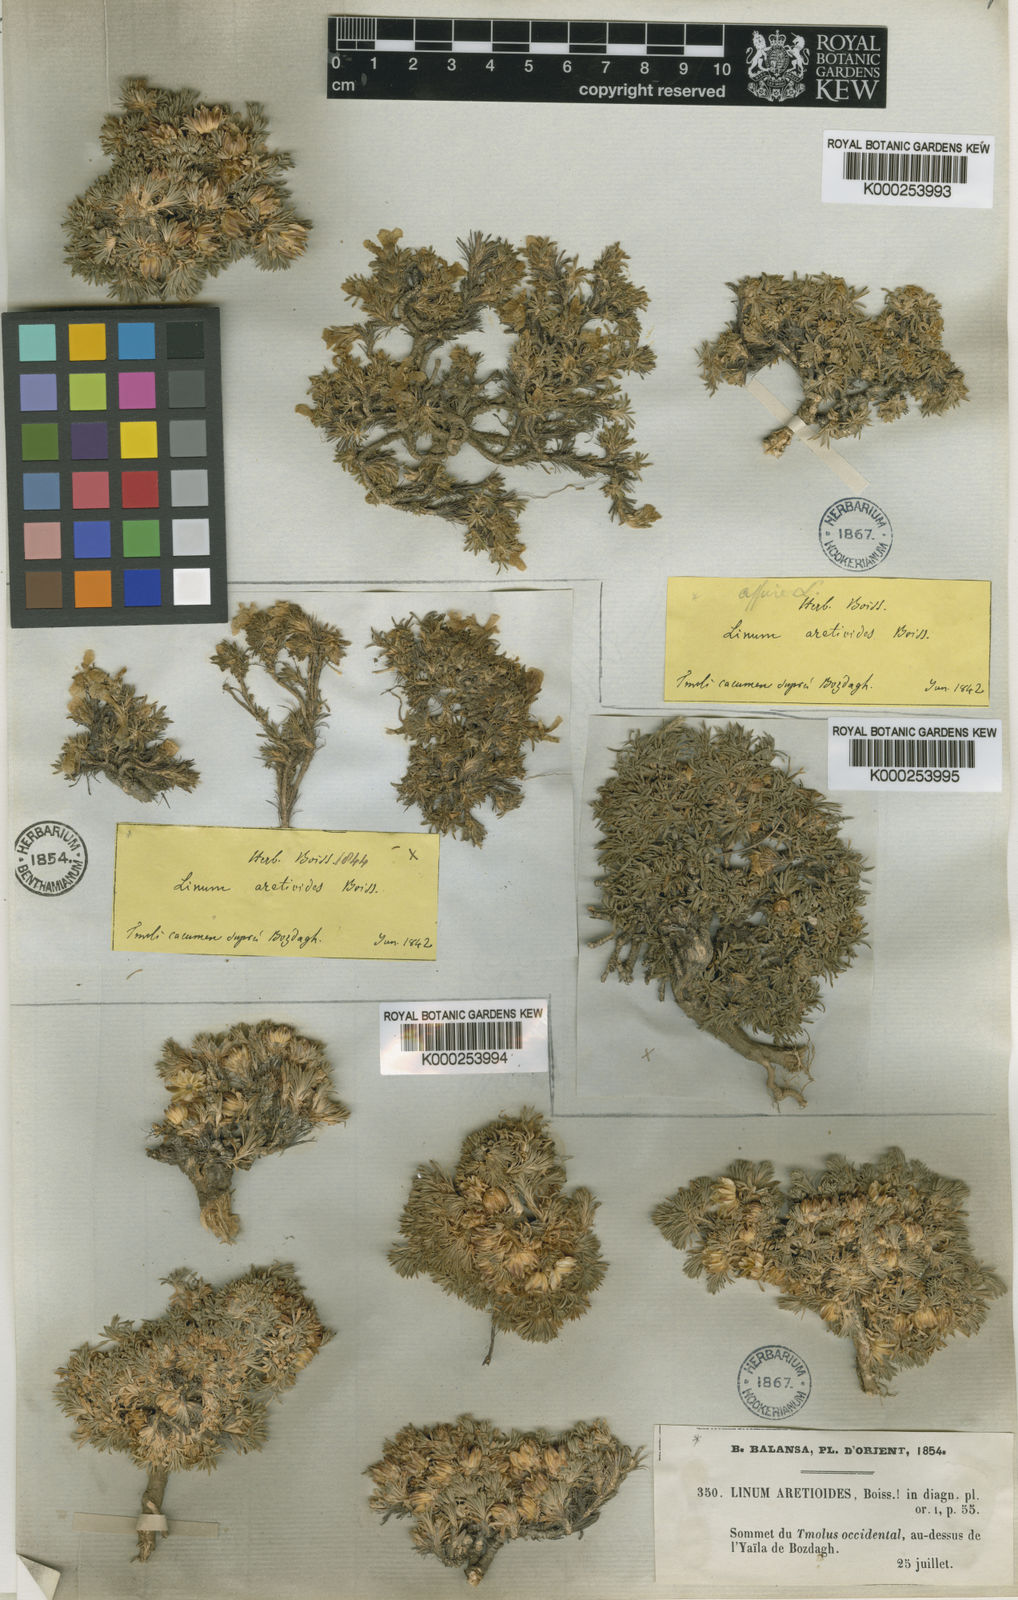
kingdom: Plantae
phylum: Tracheophyta
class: Magnoliopsida
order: Malpighiales
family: Linaceae
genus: Linum
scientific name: Linum aretioides
